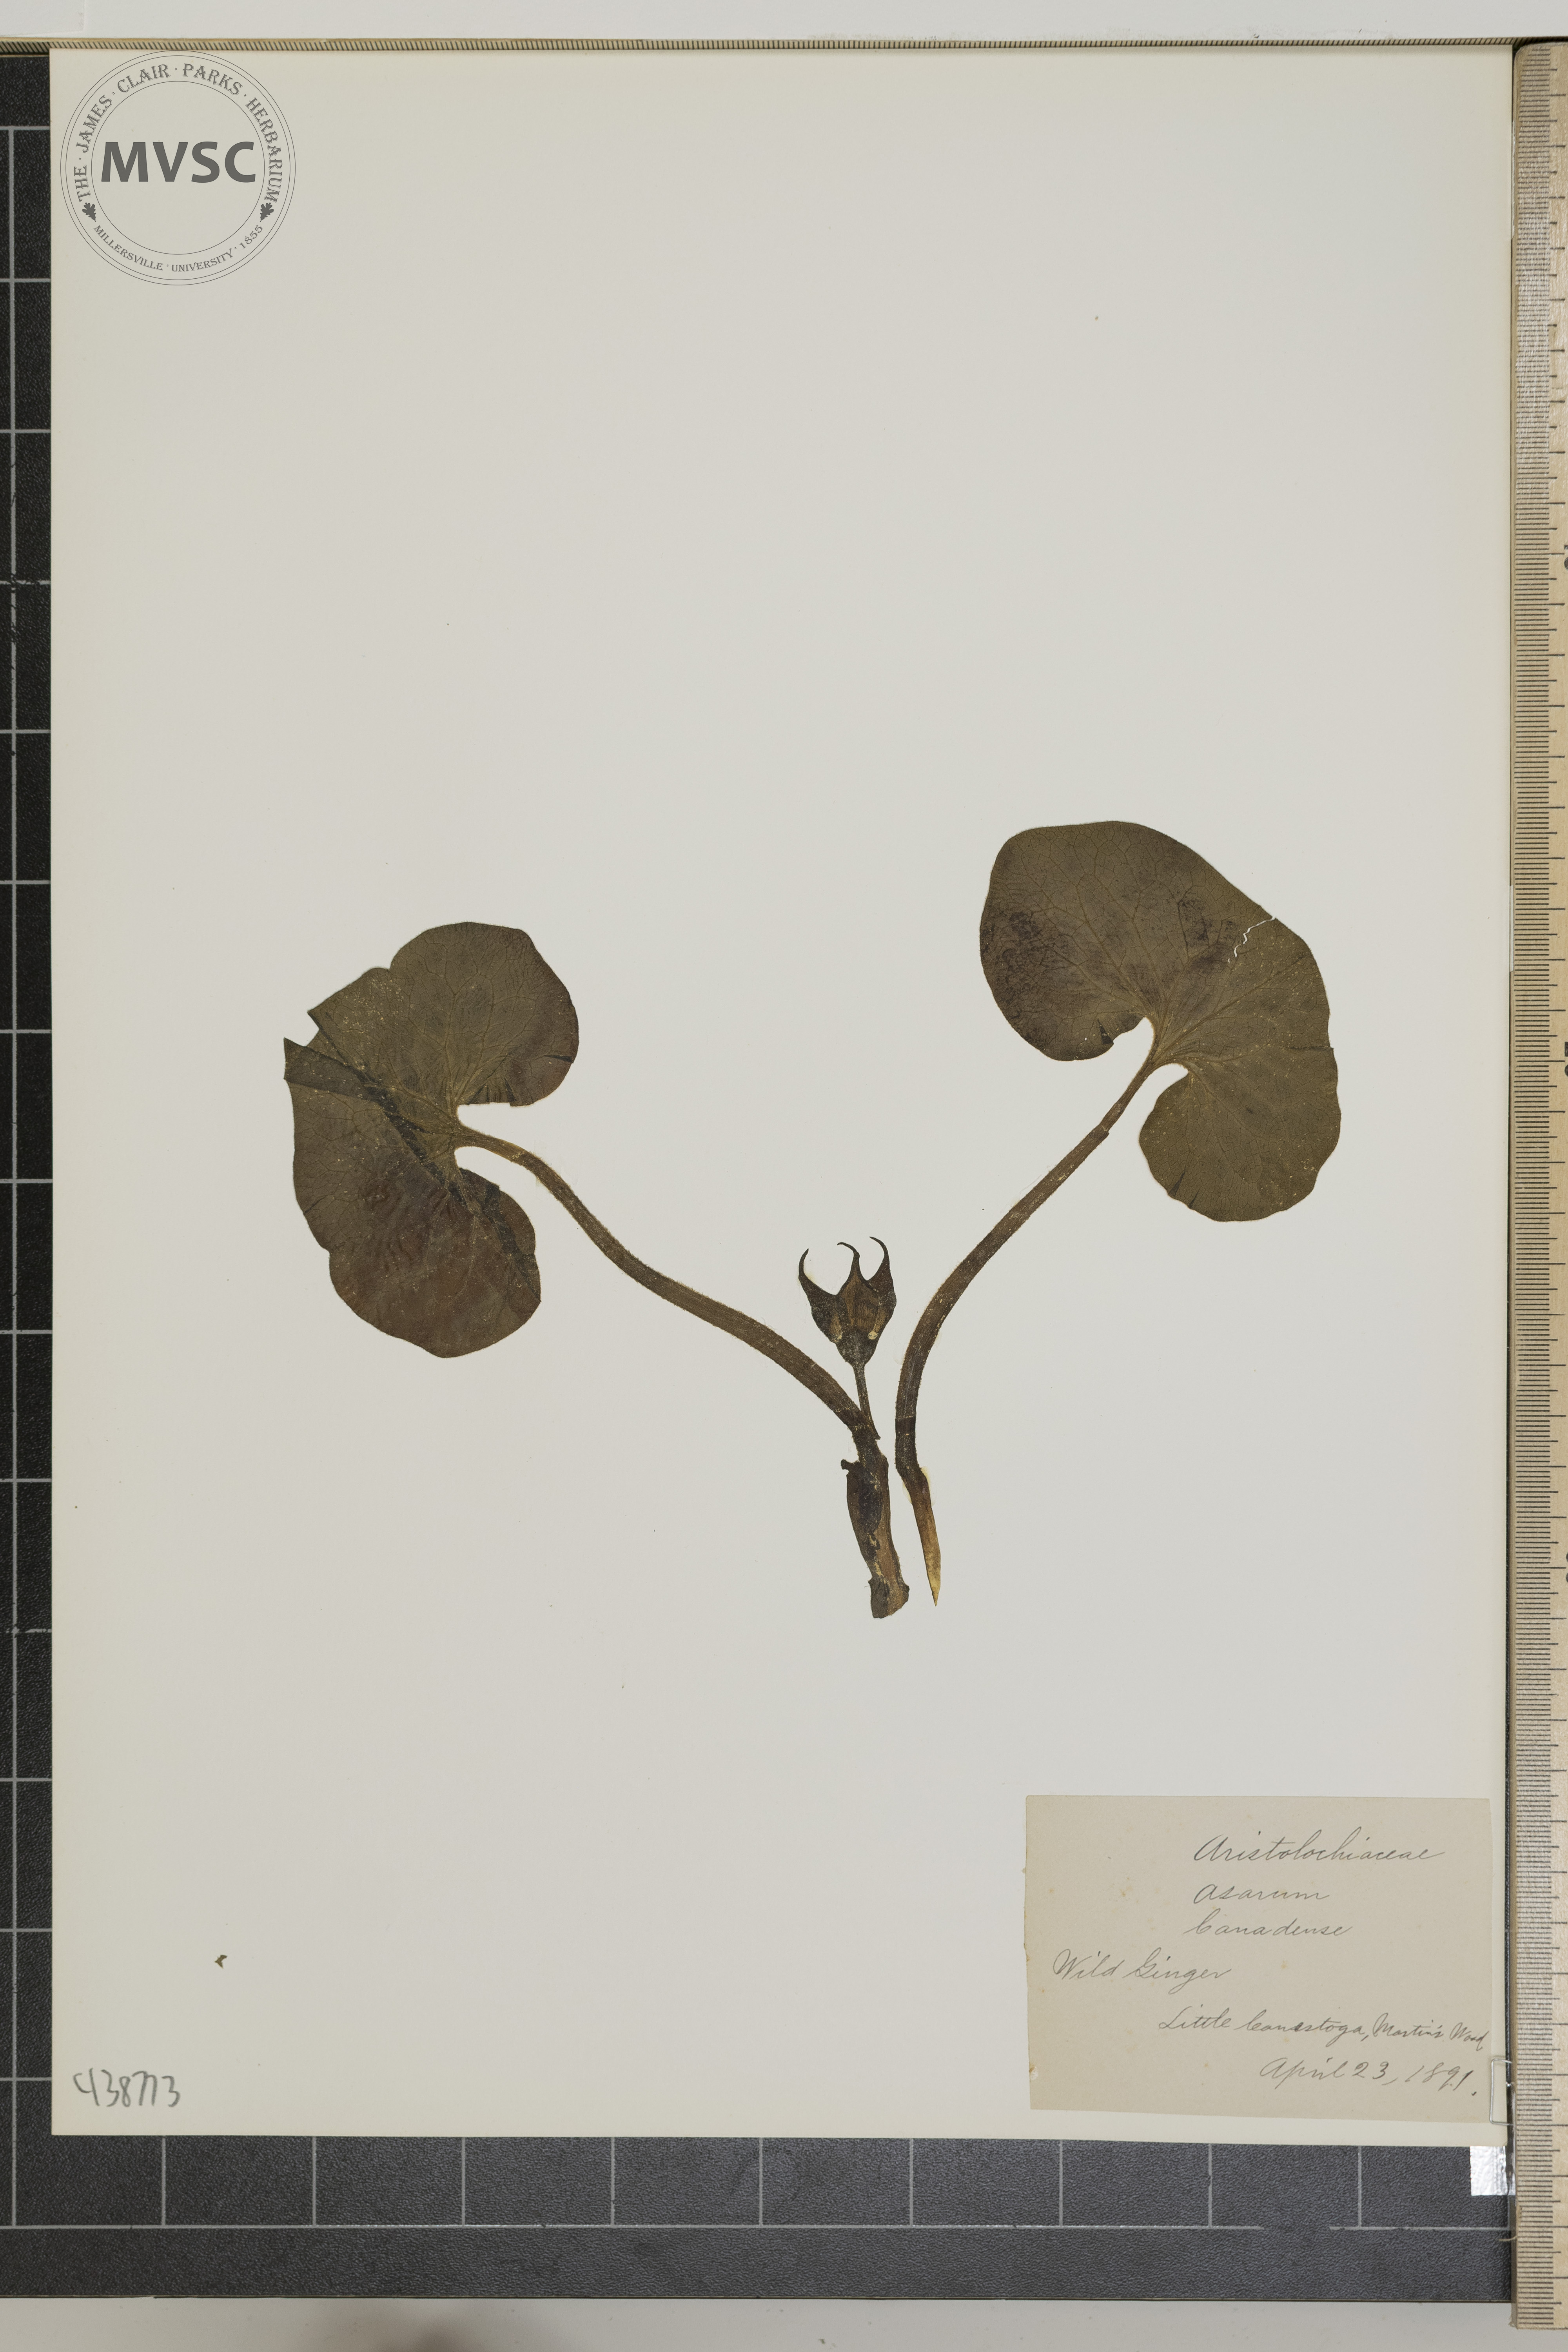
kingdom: Plantae
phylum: Tracheophyta
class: Magnoliopsida
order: Piperales
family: Aristolochiaceae
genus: Asarum
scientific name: Asarum canadense
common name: Wild ginger
